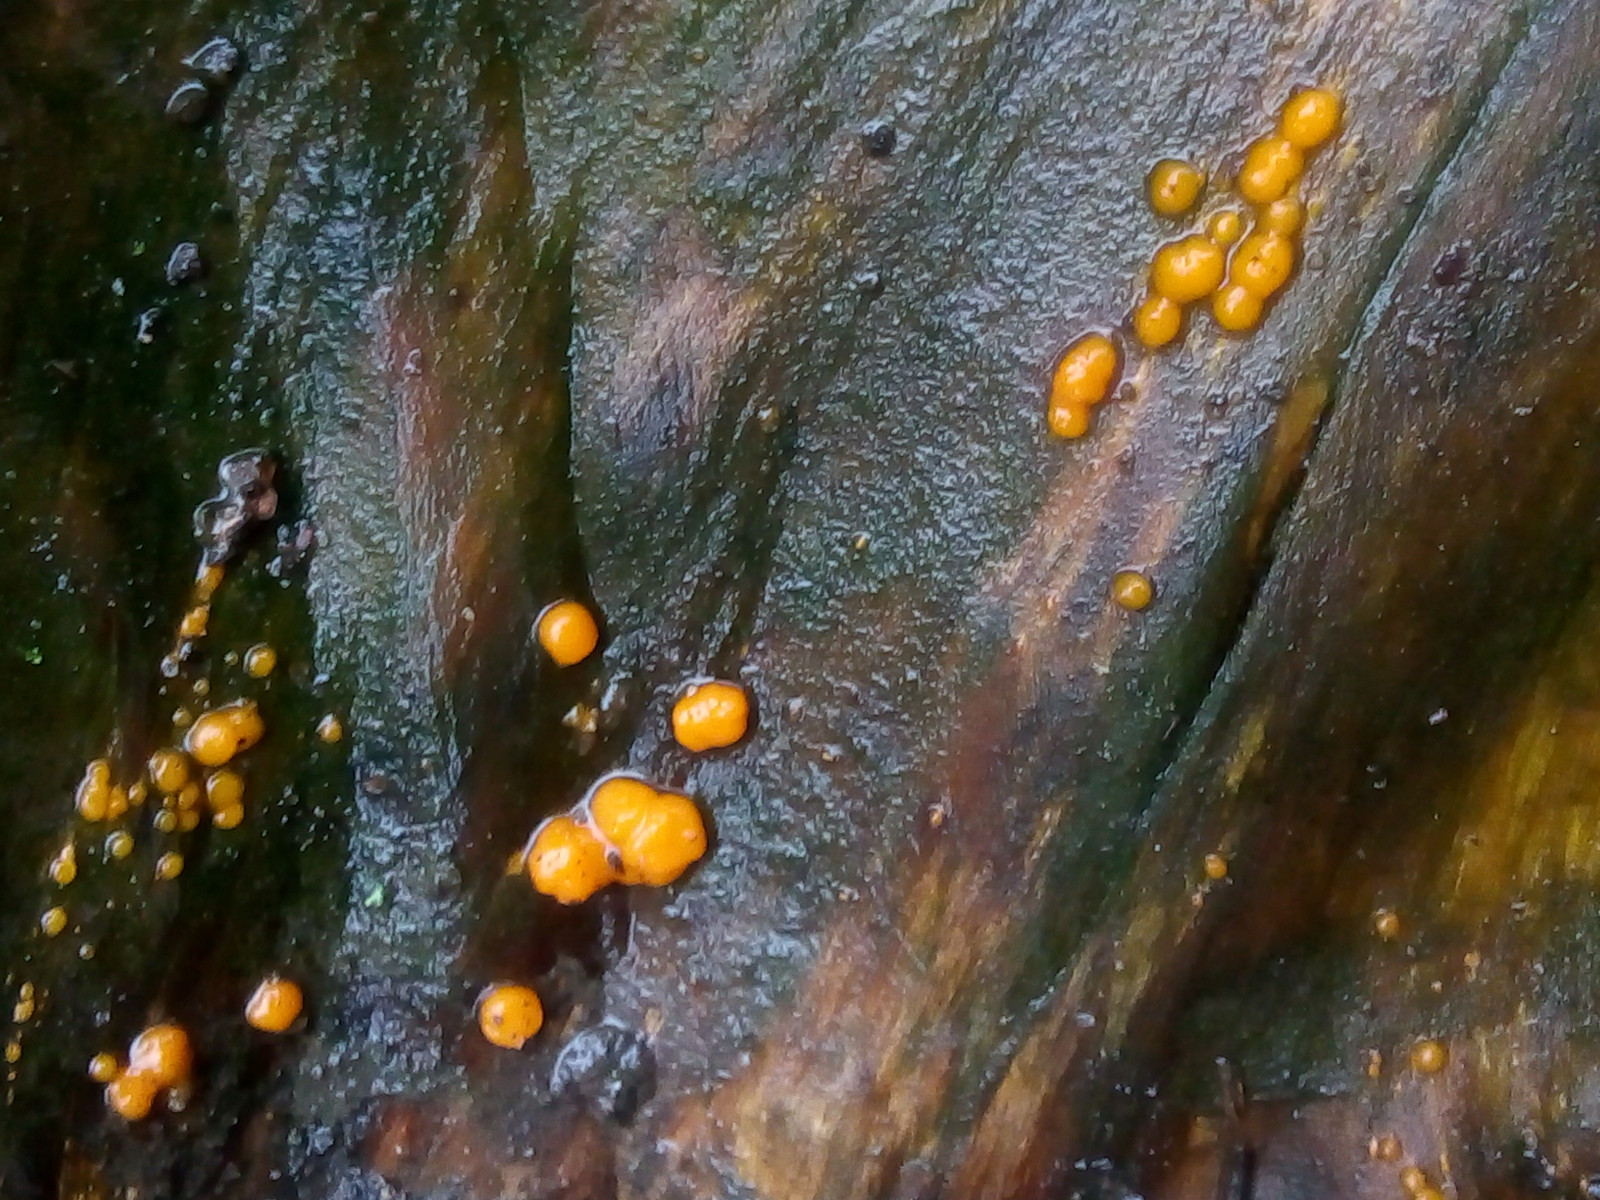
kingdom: Fungi
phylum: Basidiomycota
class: Dacrymycetes
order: Dacrymycetales
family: Dacrymycetaceae
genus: Dacrymyces
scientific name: Dacrymyces stillatus
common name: almindelig tåresvamp
